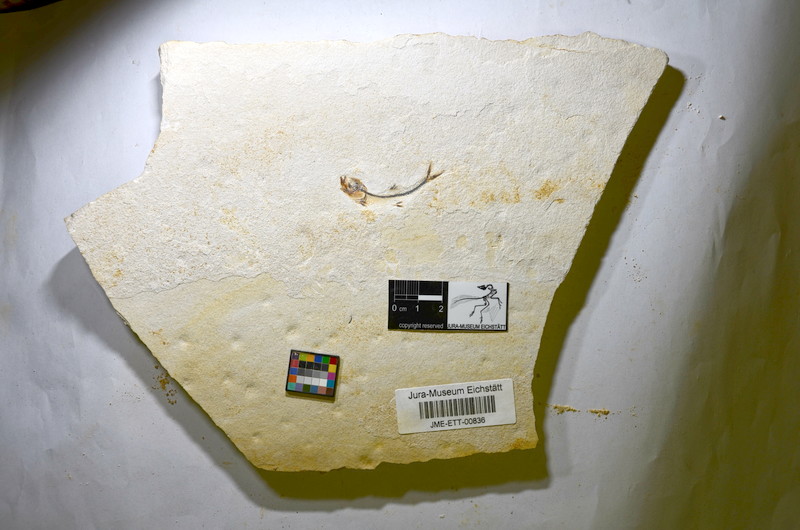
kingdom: Animalia
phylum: Chordata
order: Salmoniformes
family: Orthogonikleithridae
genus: Orthogonikleithrus
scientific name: Orthogonikleithrus hoelli
